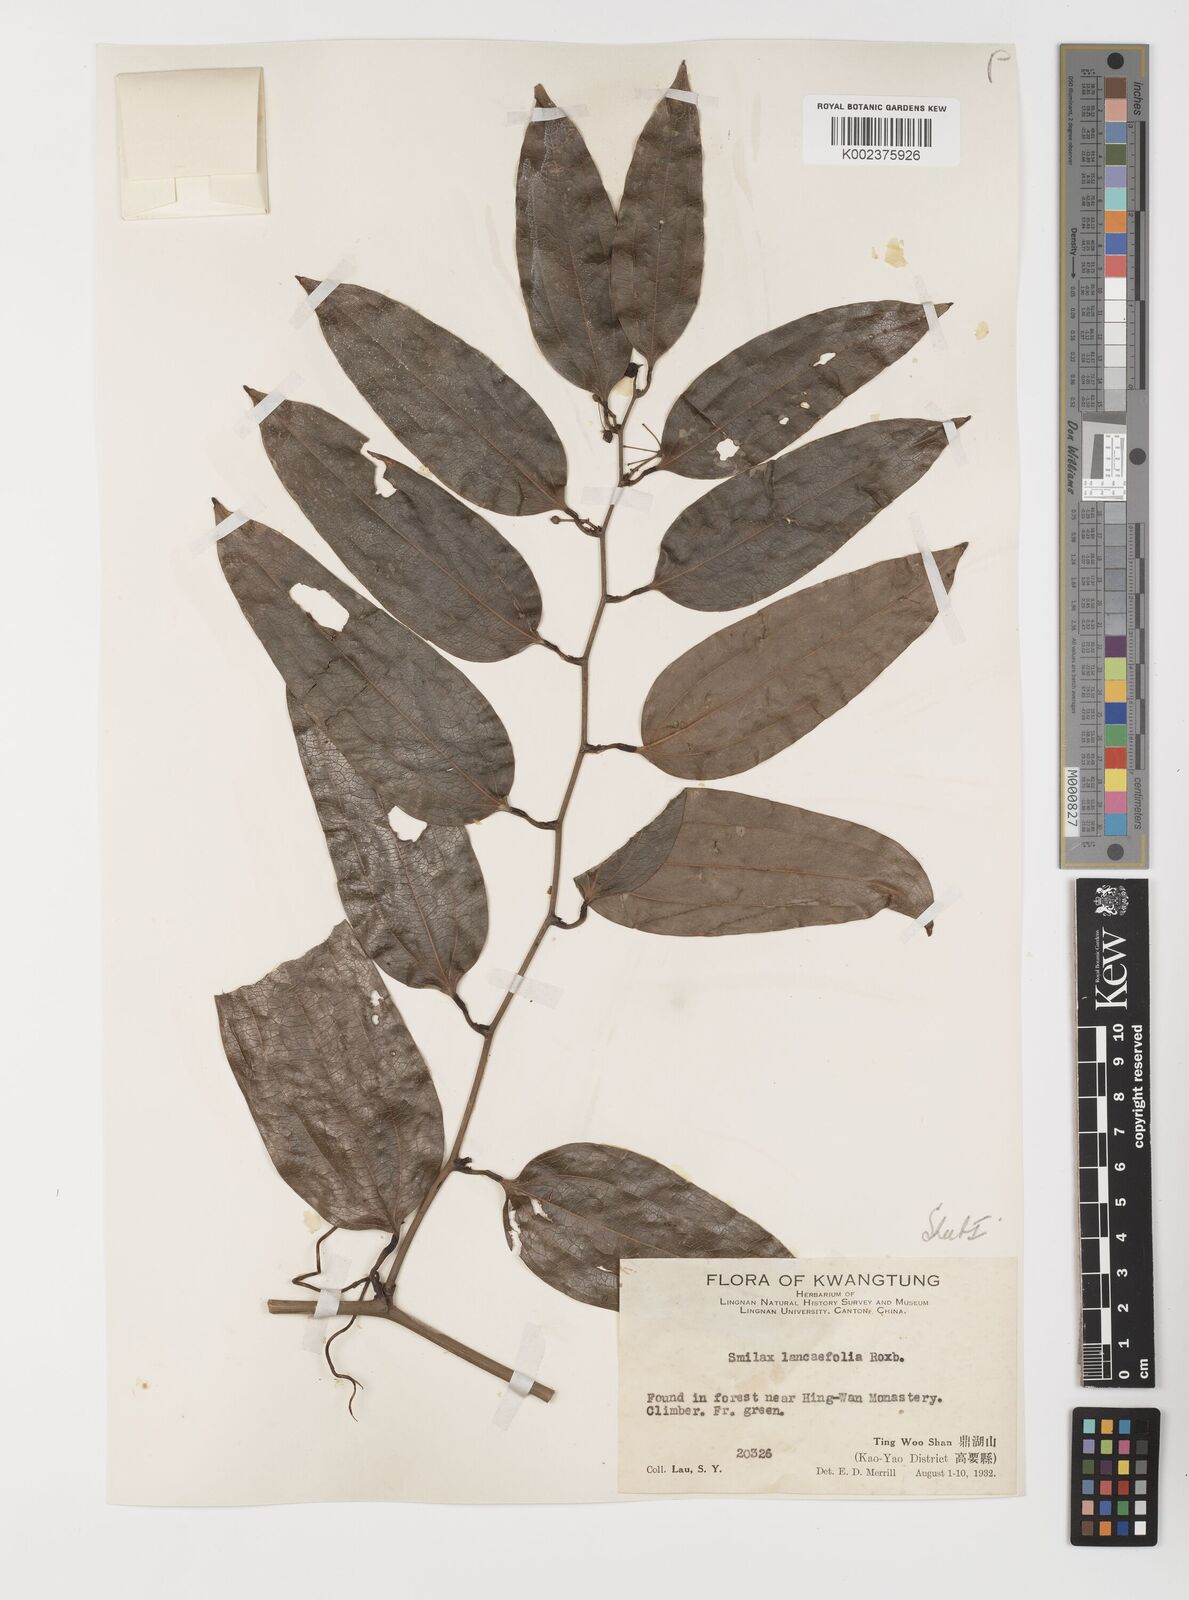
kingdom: Plantae
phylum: Tracheophyta
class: Liliopsida
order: Liliales
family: Smilacaceae
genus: Smilax
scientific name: Smilax lanceifolia
